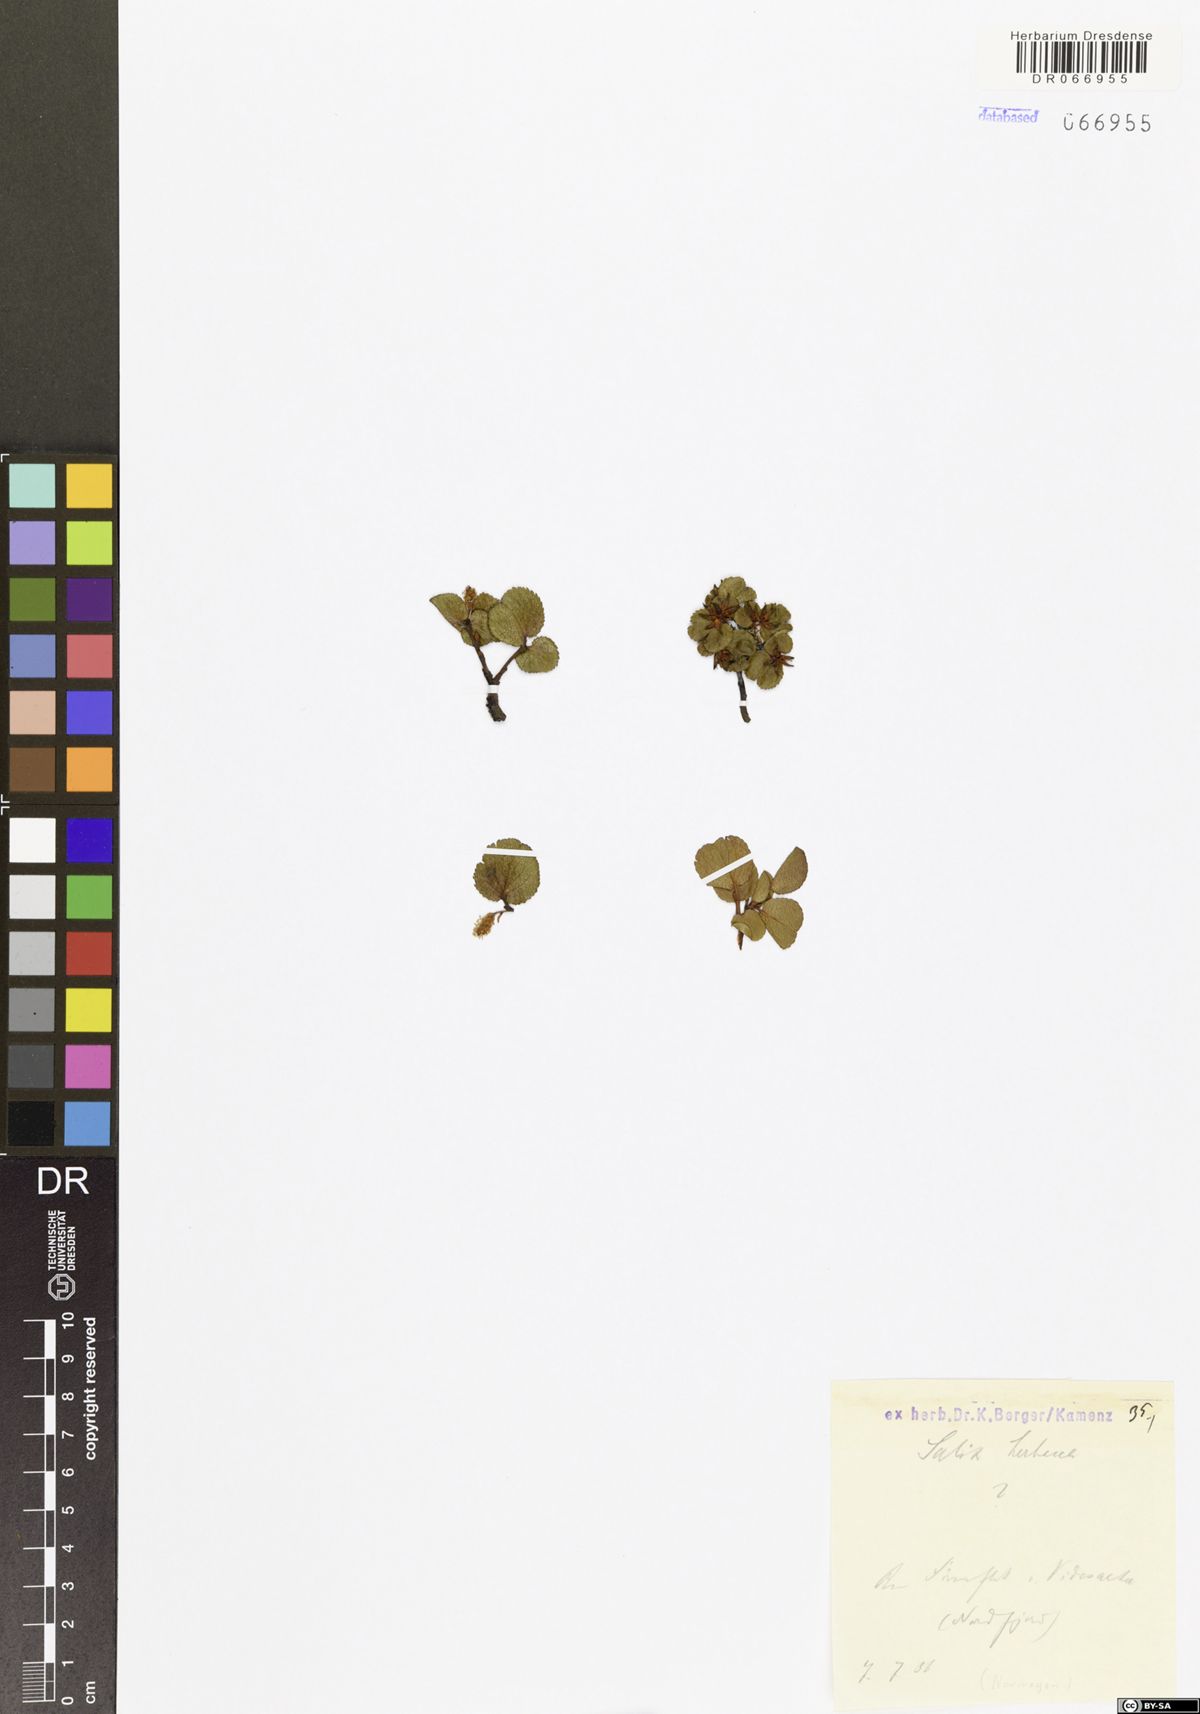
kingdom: Plantae
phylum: Tracheophyta
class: Magnoliopsida
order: Malpighiales
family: Salicaceae
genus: Salix
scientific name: Salix herbacea
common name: Dwarf willow
